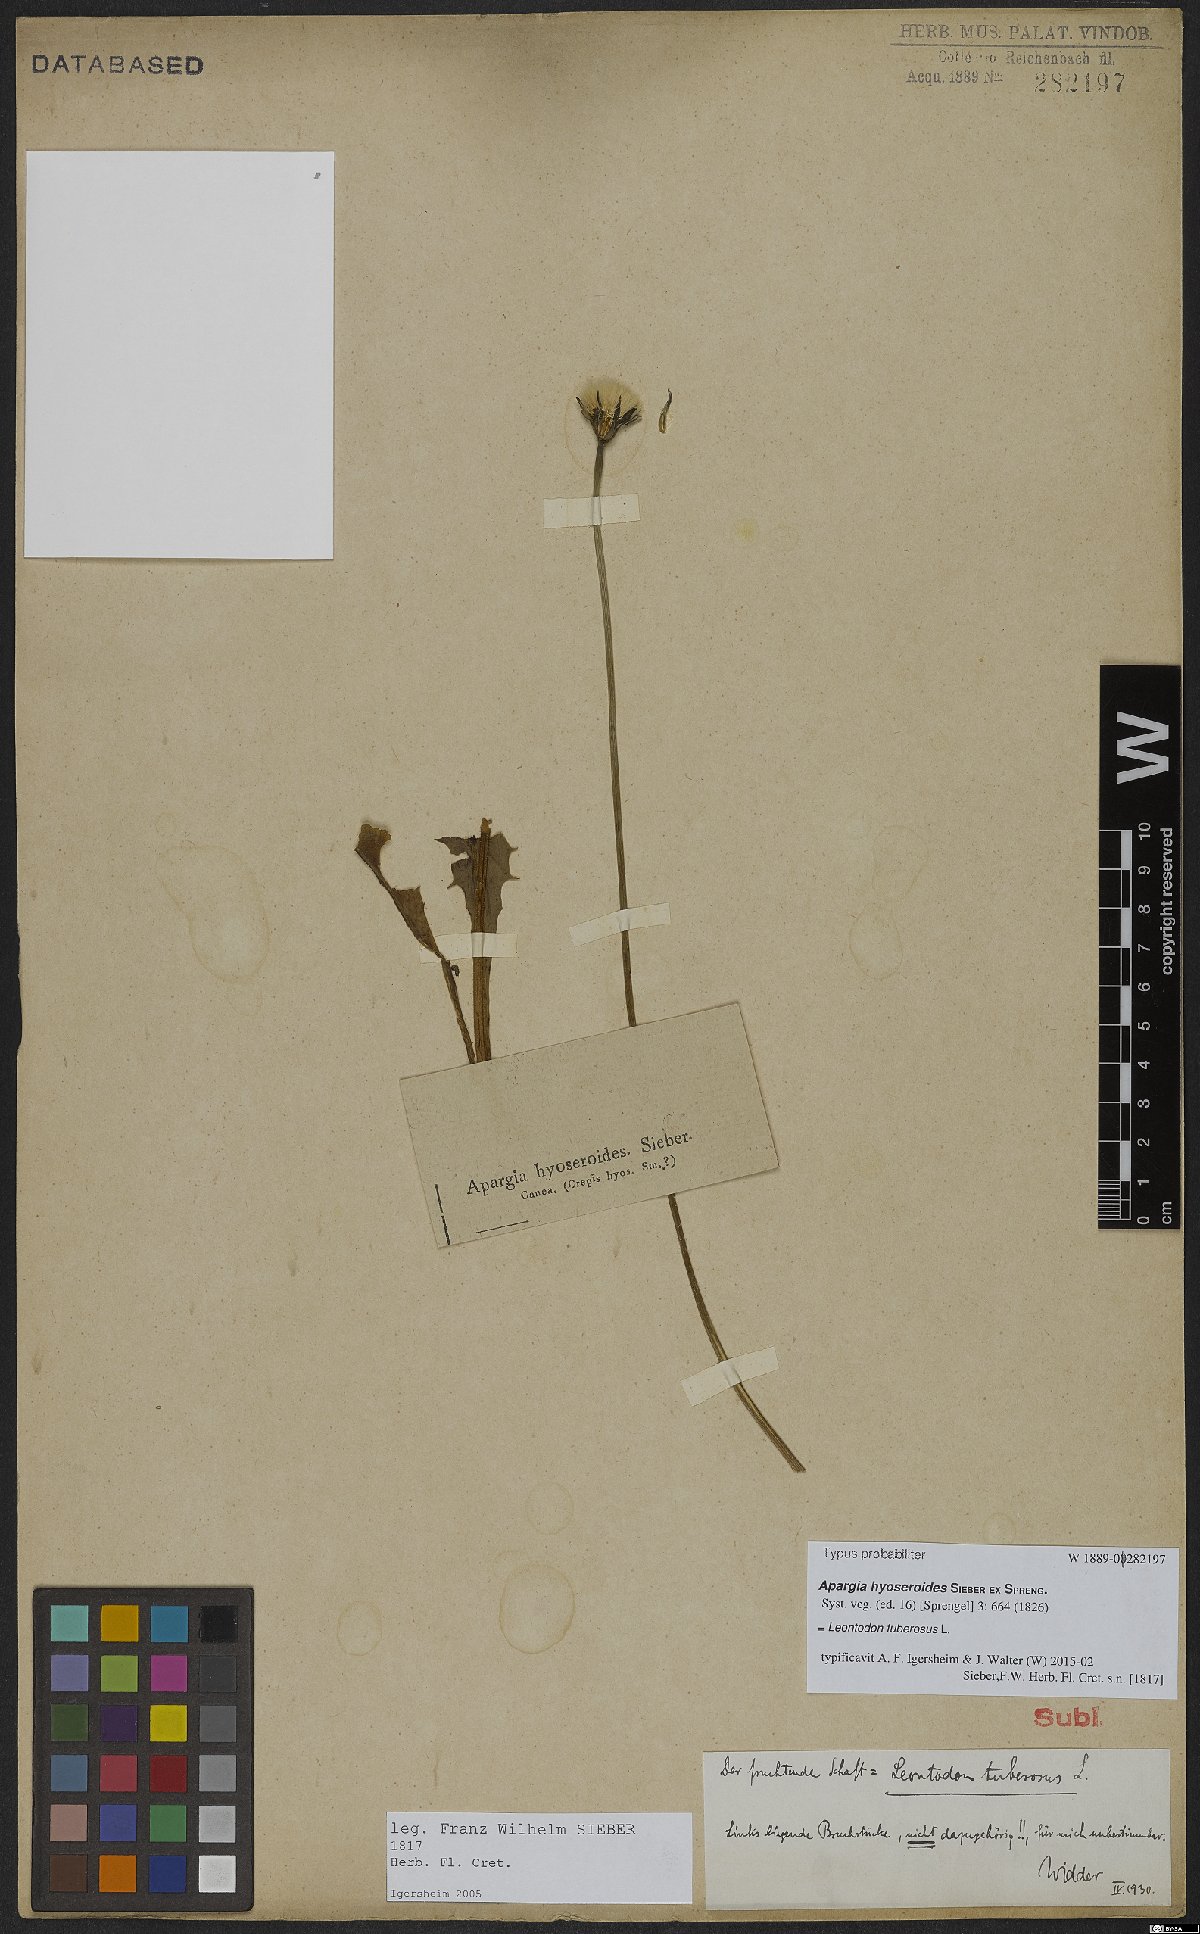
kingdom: Plantae
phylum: Tracheophyta
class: Magnoliopsida
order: Asterales
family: Asteraceae
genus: Thrincia
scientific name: Thrincia tuberosa
